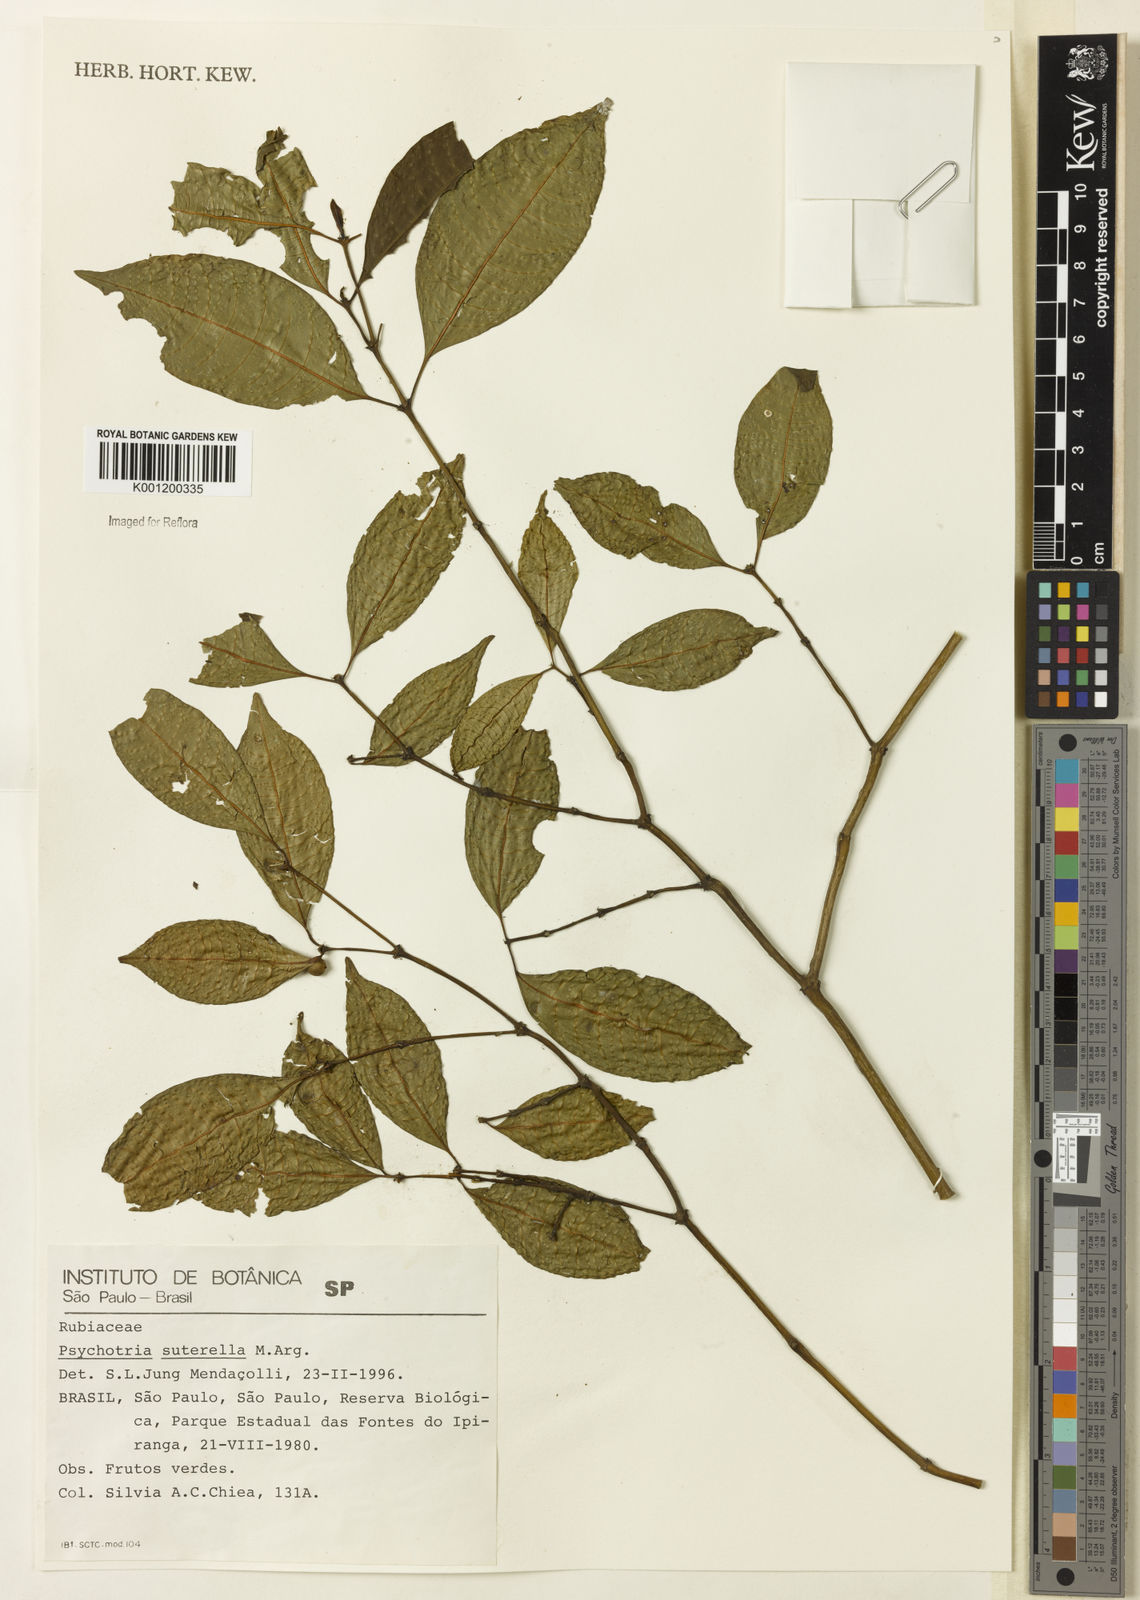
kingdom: Plantae
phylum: Tracheophyta
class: Magnoliopsida
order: Gentianales
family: Rubiaceae
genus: Psychotria
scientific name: Psychotria
